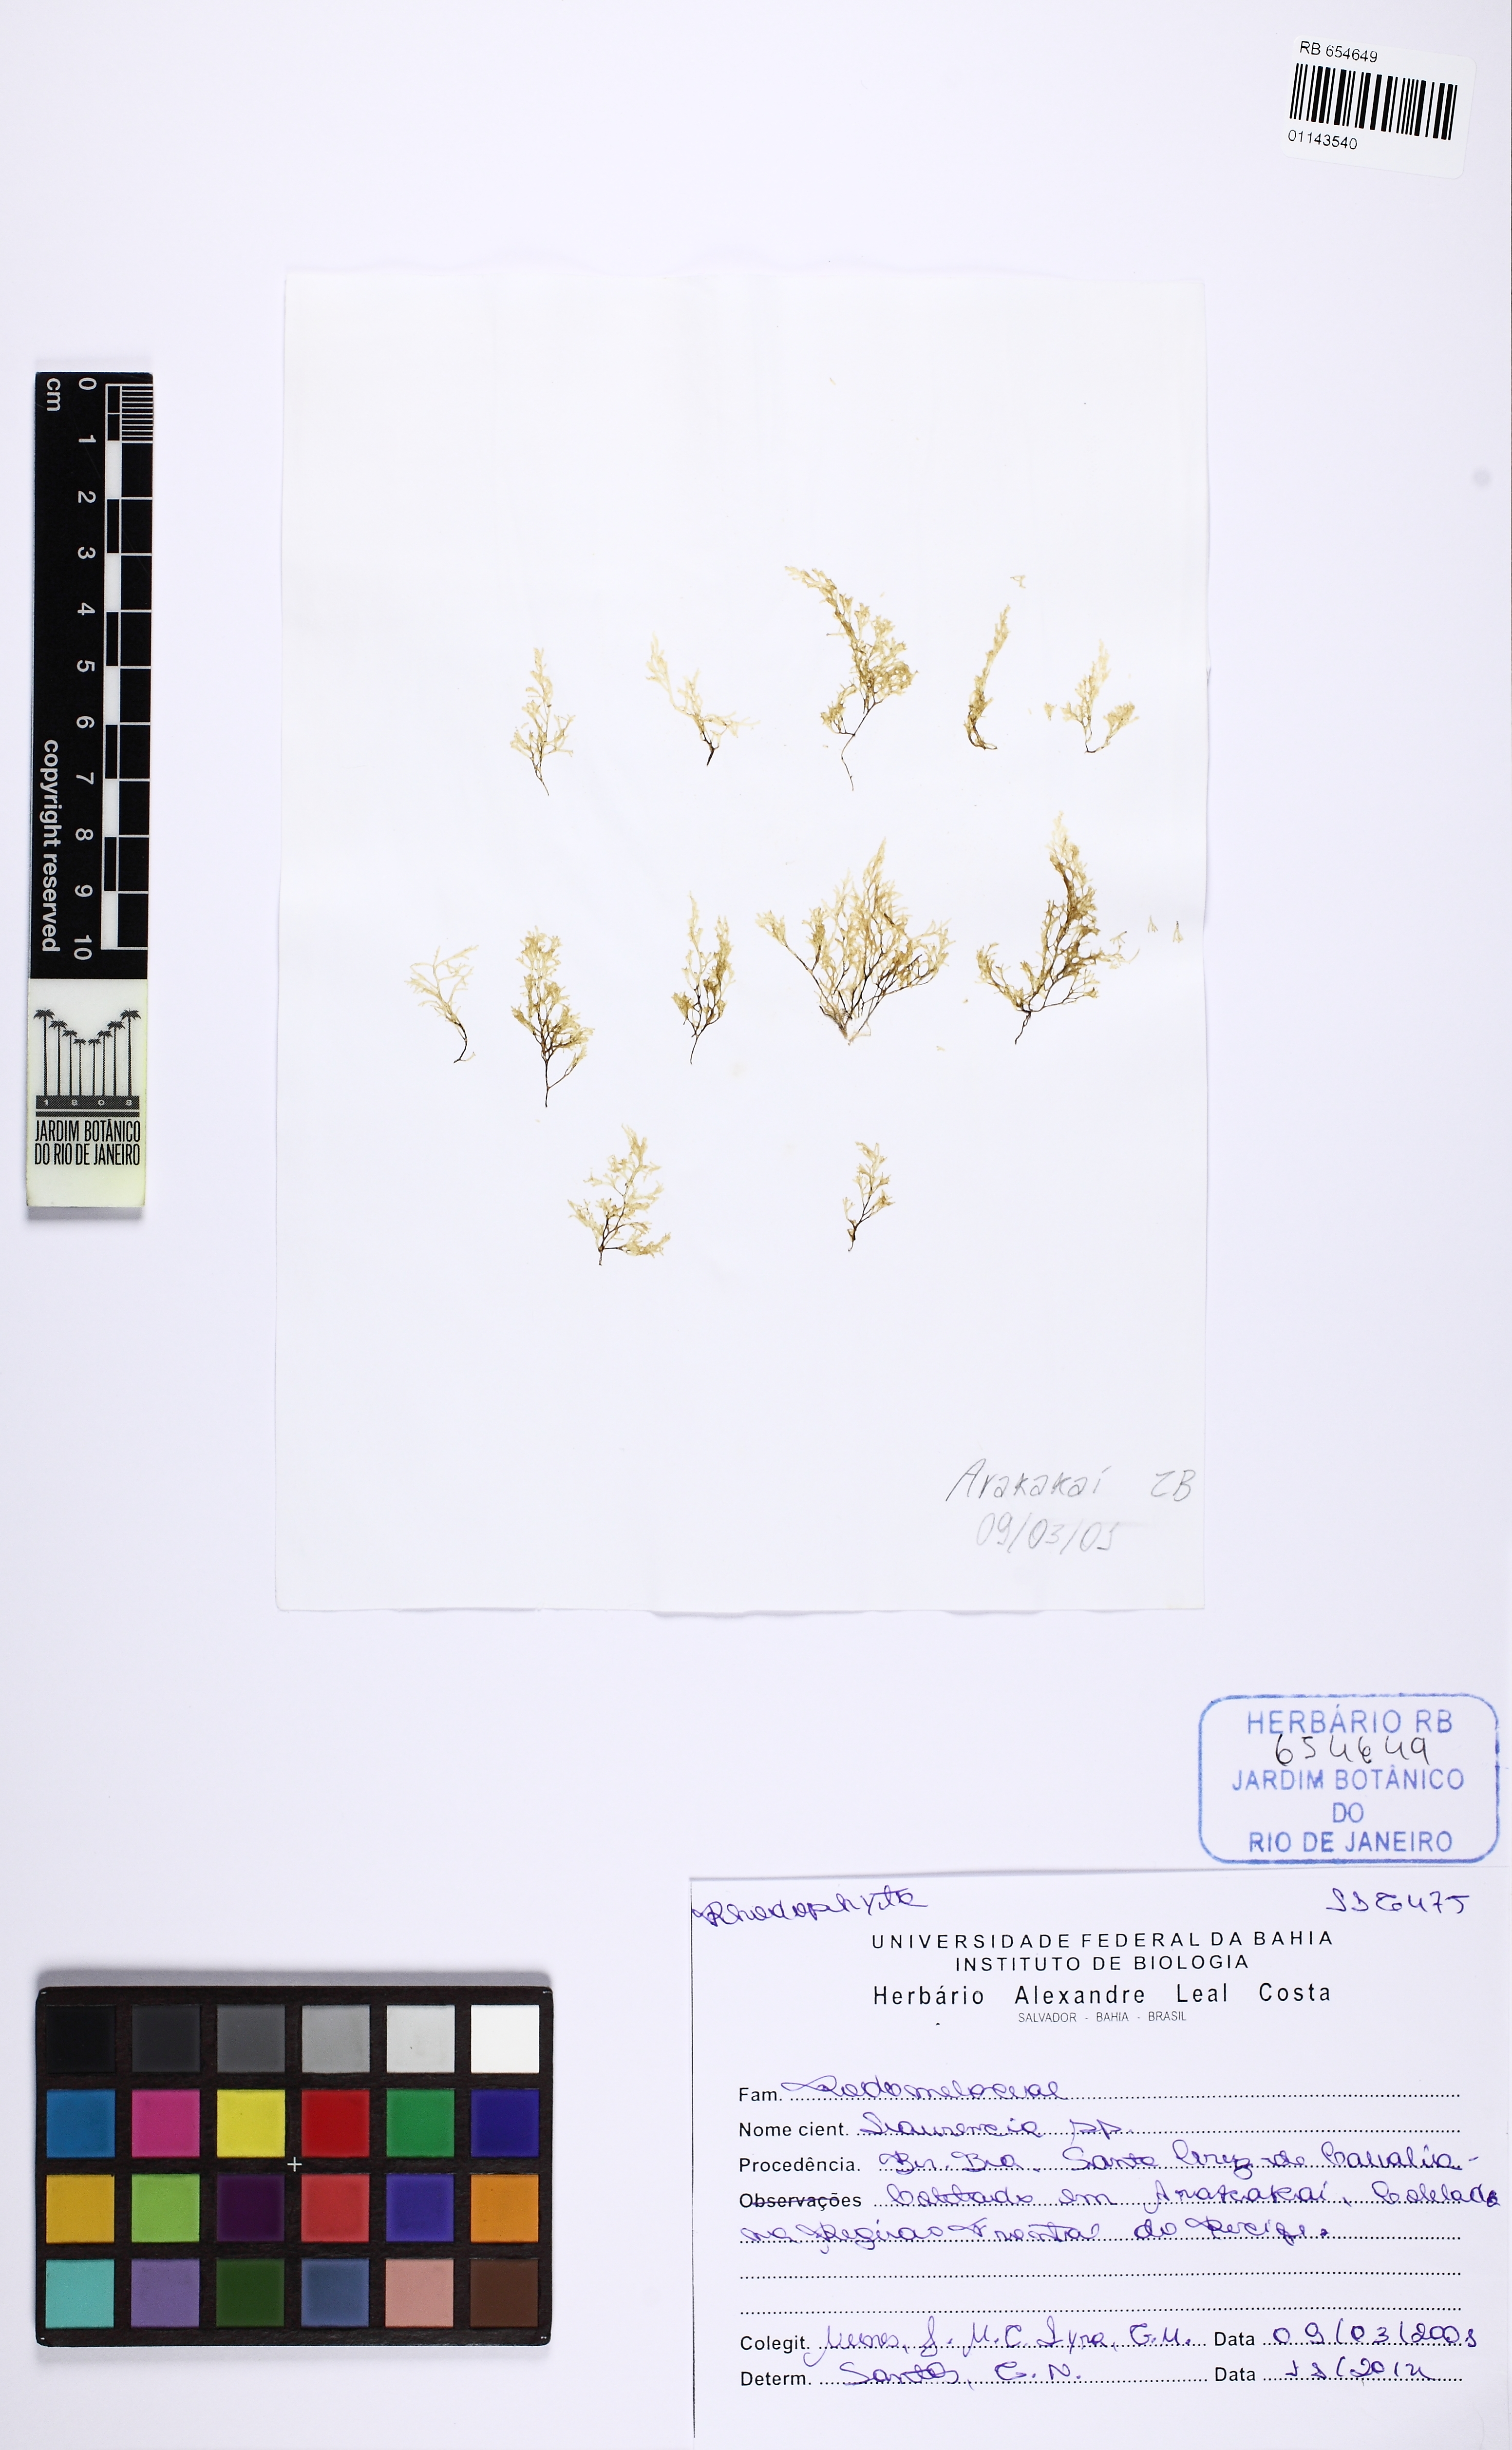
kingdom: Plantae
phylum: Rhodophyta
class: Florideophyceae
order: Ceramiales
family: Rhodomelaceae
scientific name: Rhodomelaceae
